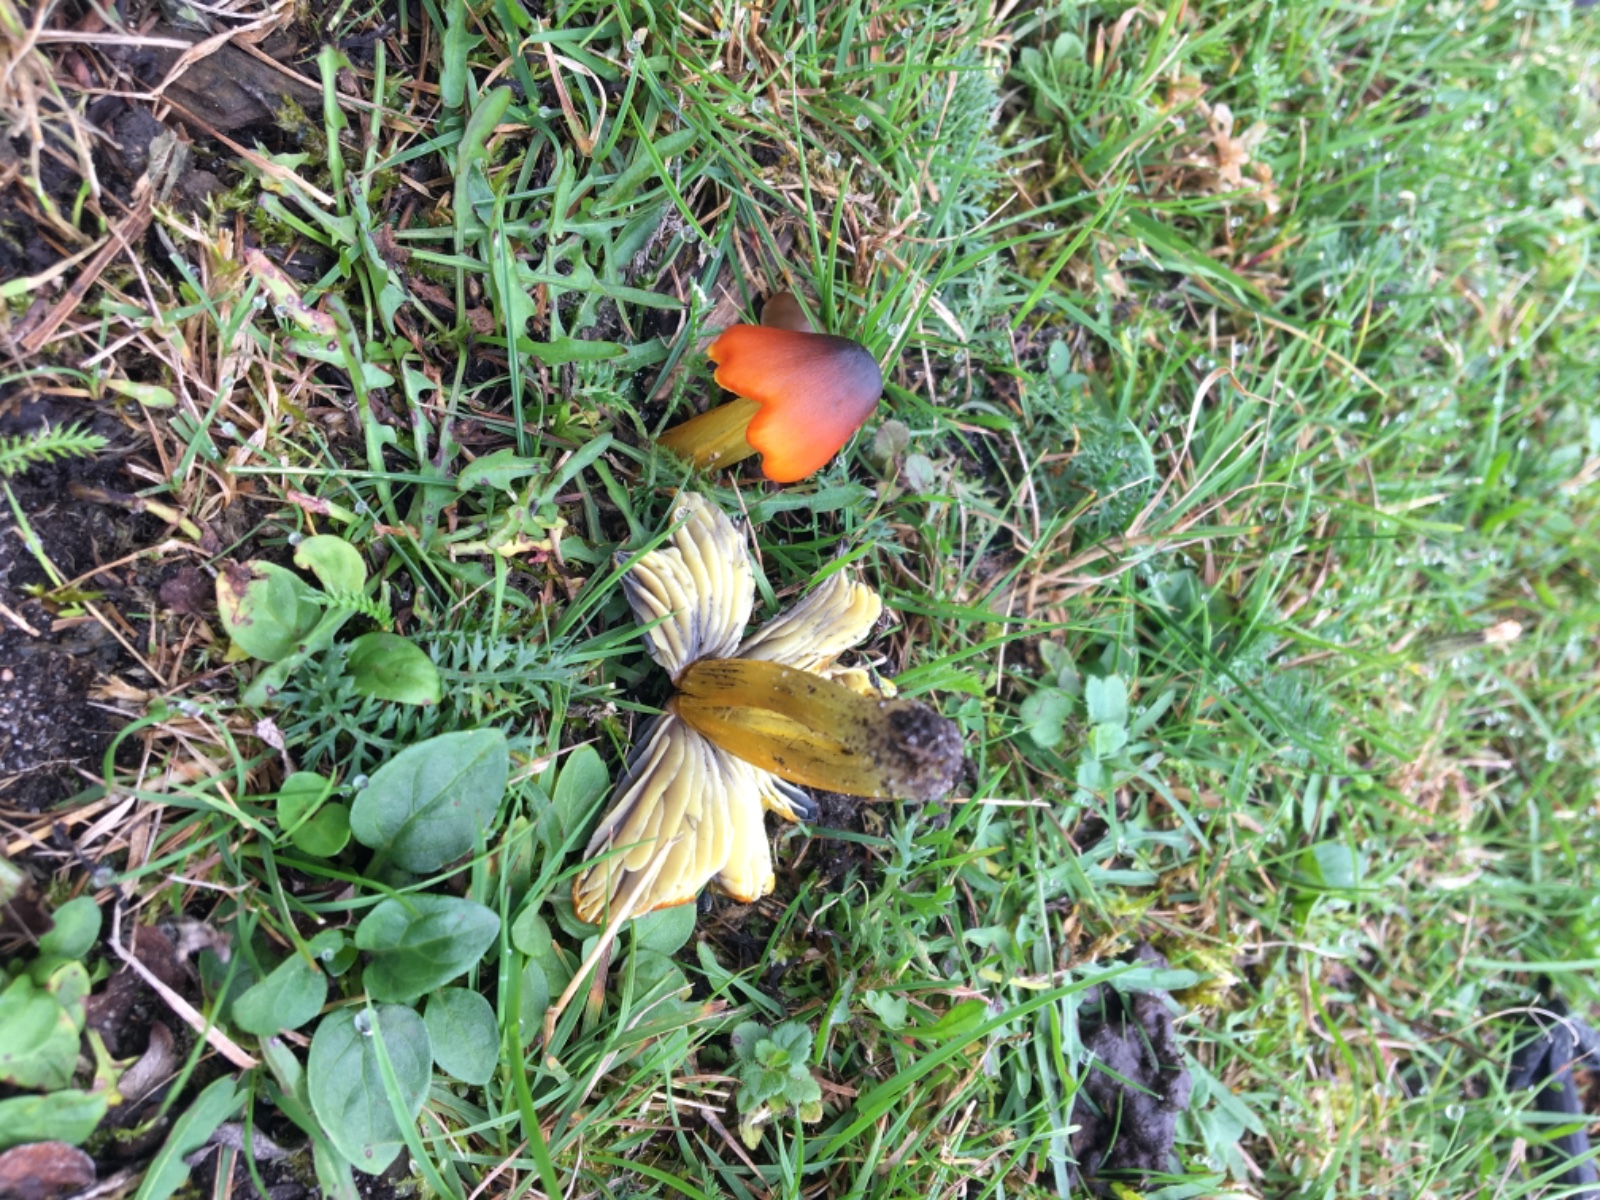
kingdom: Fungi
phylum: Basidiomycota
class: Agaricomycetes
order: Agaricales
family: Hygrophoraceae
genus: Hygrocybe
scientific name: Hygrocybe conica
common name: kegle-vokshat
